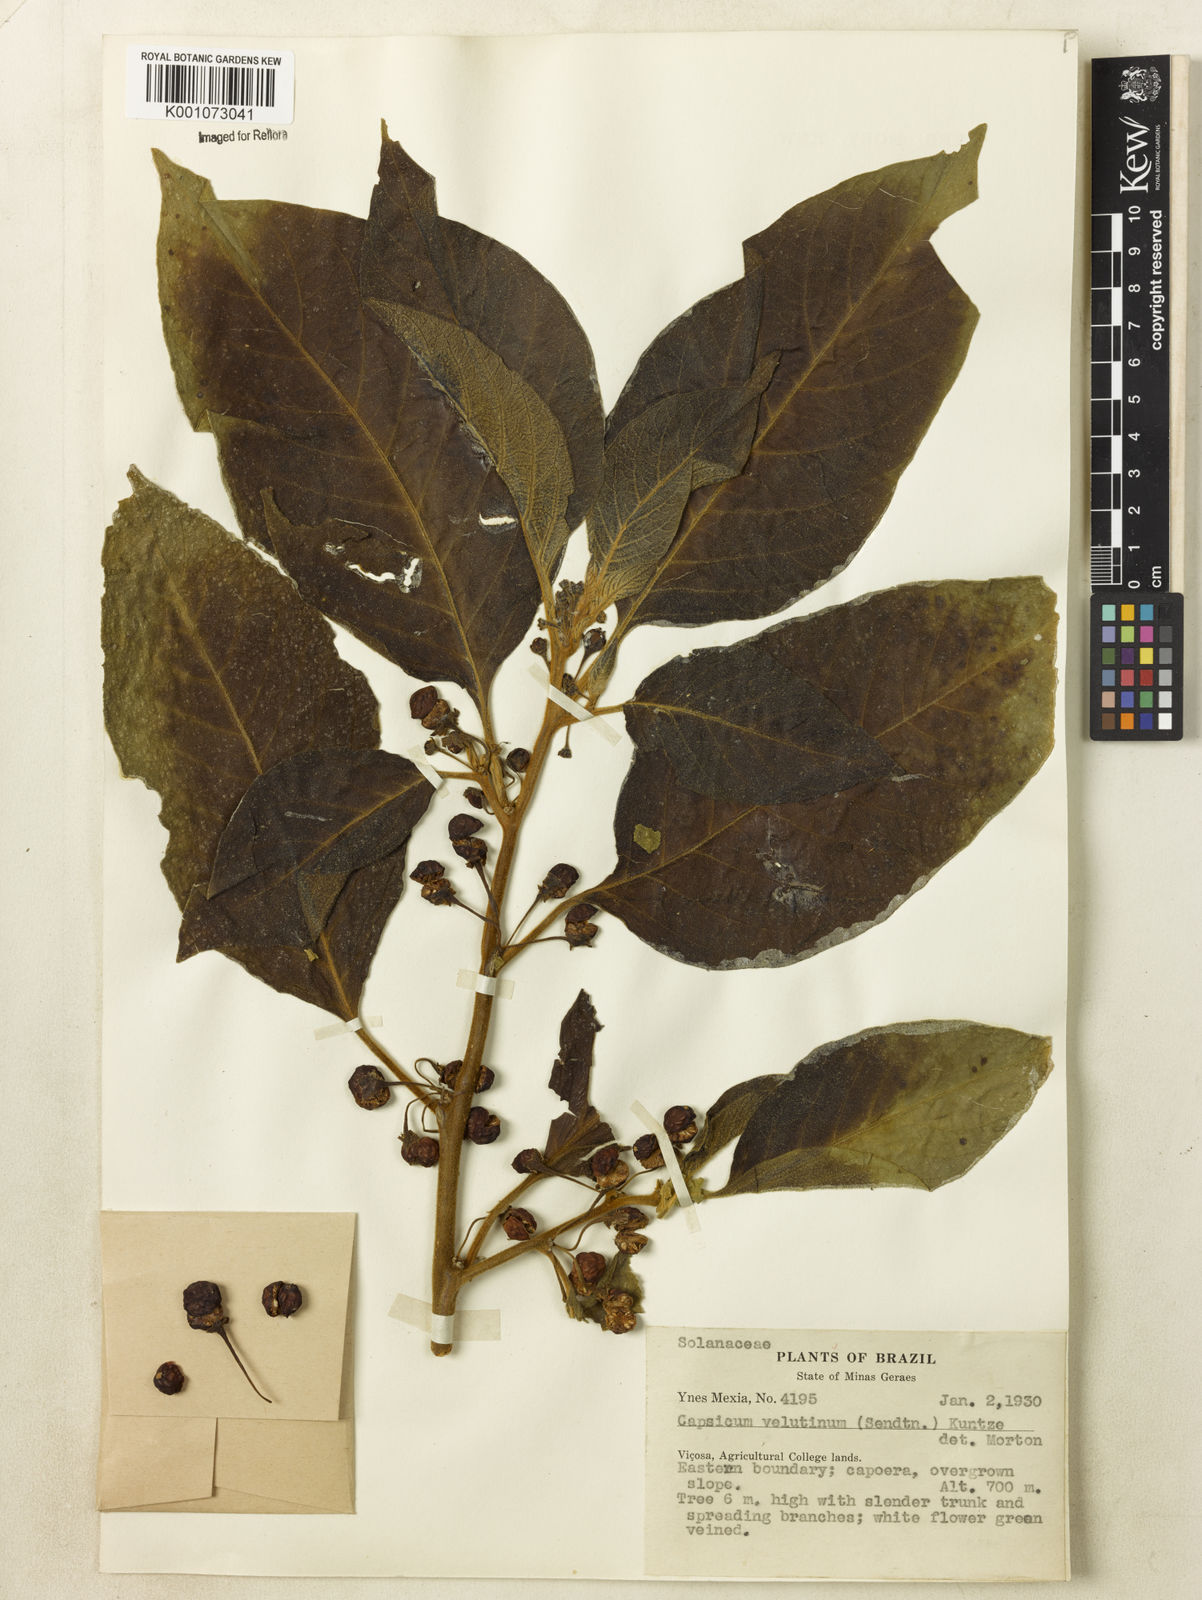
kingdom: Plantae
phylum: Tracheophyta
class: Magnoliopsida
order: Solanales
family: Solanaceae
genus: Athenaea
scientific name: Athenaea velutina
